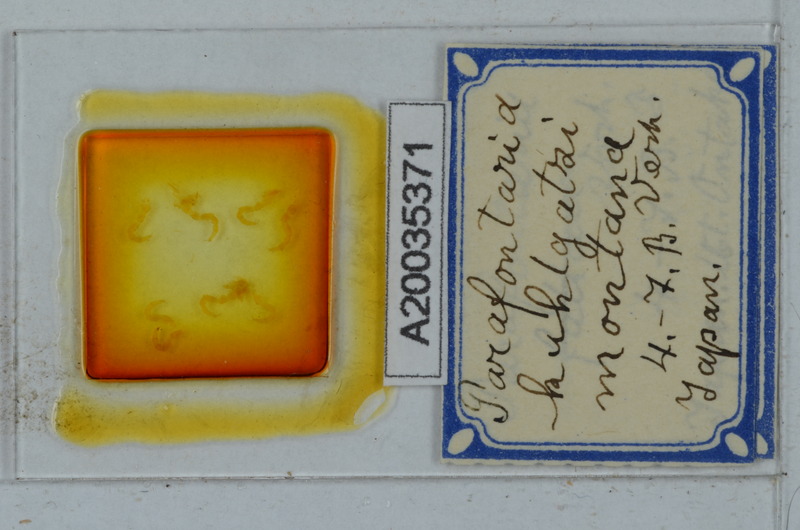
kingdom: Animalia
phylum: Arthropoda
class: Diplopoda
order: Polydesmida
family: Xystodesmidae
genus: Parafontaria
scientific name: Parafontaria
